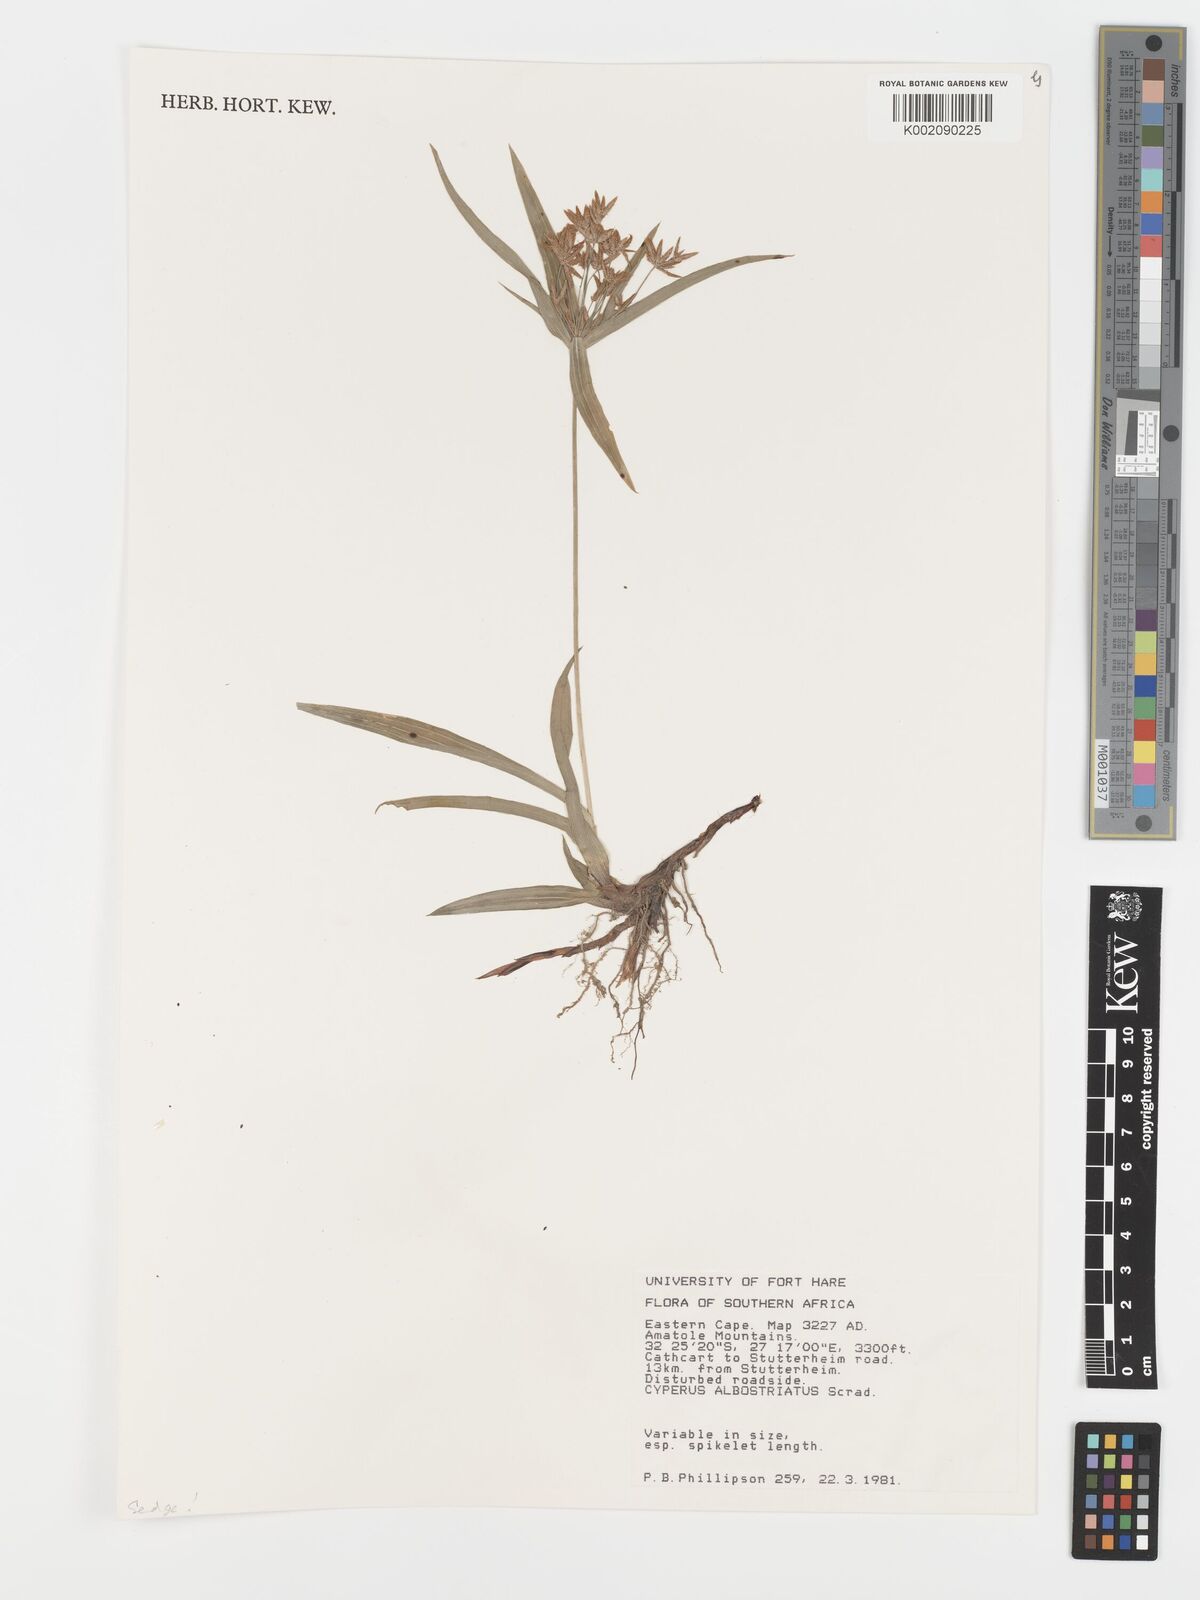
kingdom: Plantae
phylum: Tracheophyta
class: Liliopsida
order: Poales
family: Cyperaceae
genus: Cyperus
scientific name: Cyperus albostriatus
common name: Dwarf umbrella-grass
